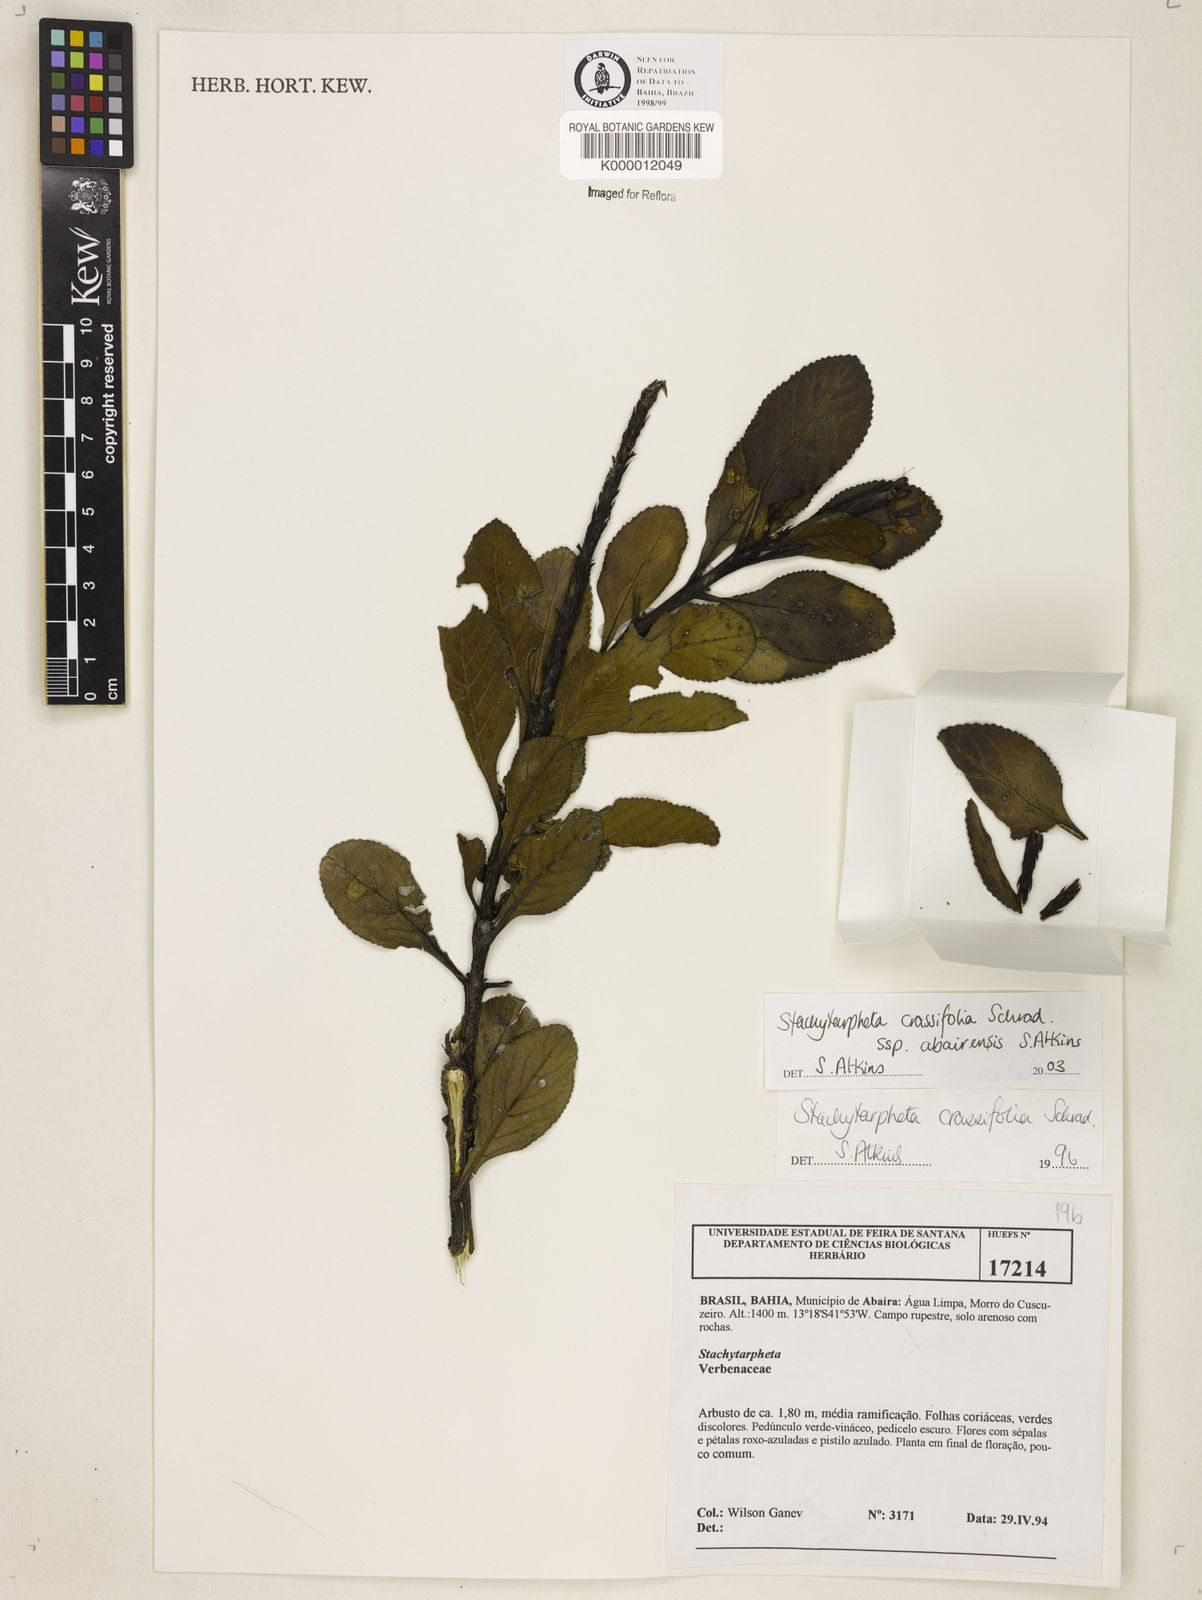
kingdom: Plantae
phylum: Tracheophyta
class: Magnoliopsida
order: Lamiales
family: Verbenaceae
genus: Stachytarpheta
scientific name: Stachytarpheta tuberculata
